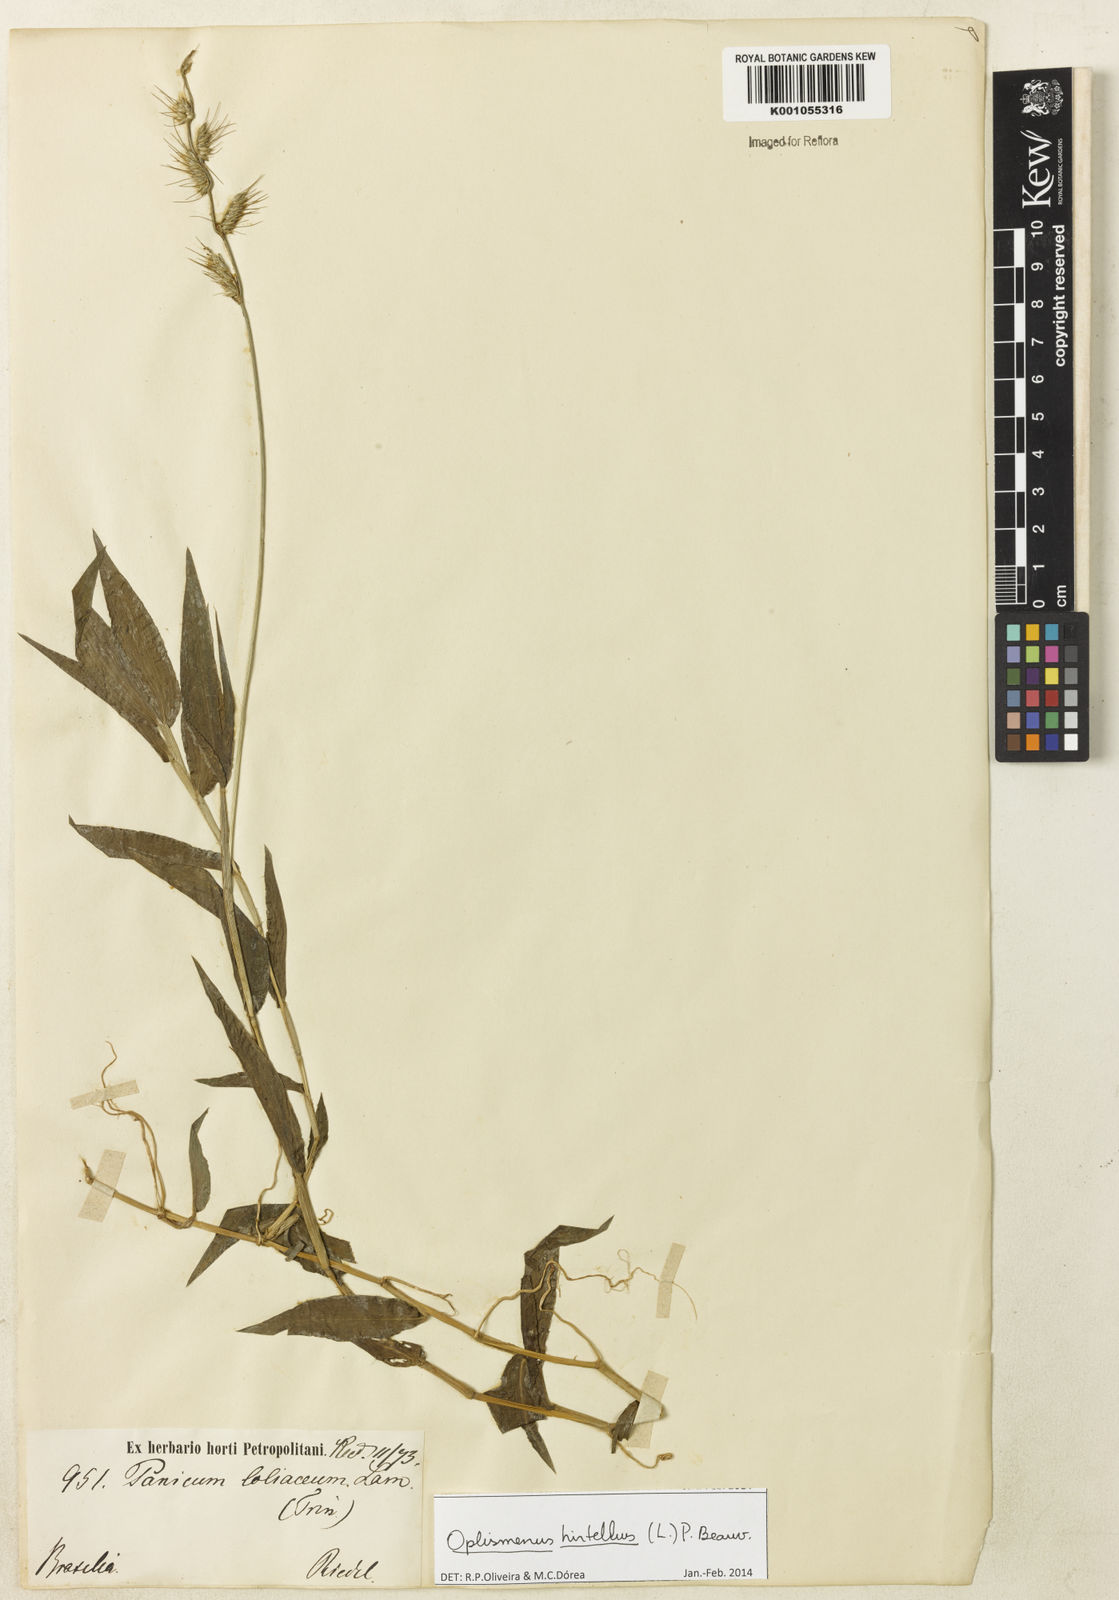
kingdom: Plantae
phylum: Tracheophyta
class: Liliopsida
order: Poales
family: Poaceae
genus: Oplismenus
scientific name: Oplismenus hirtellus
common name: Basketgrass
